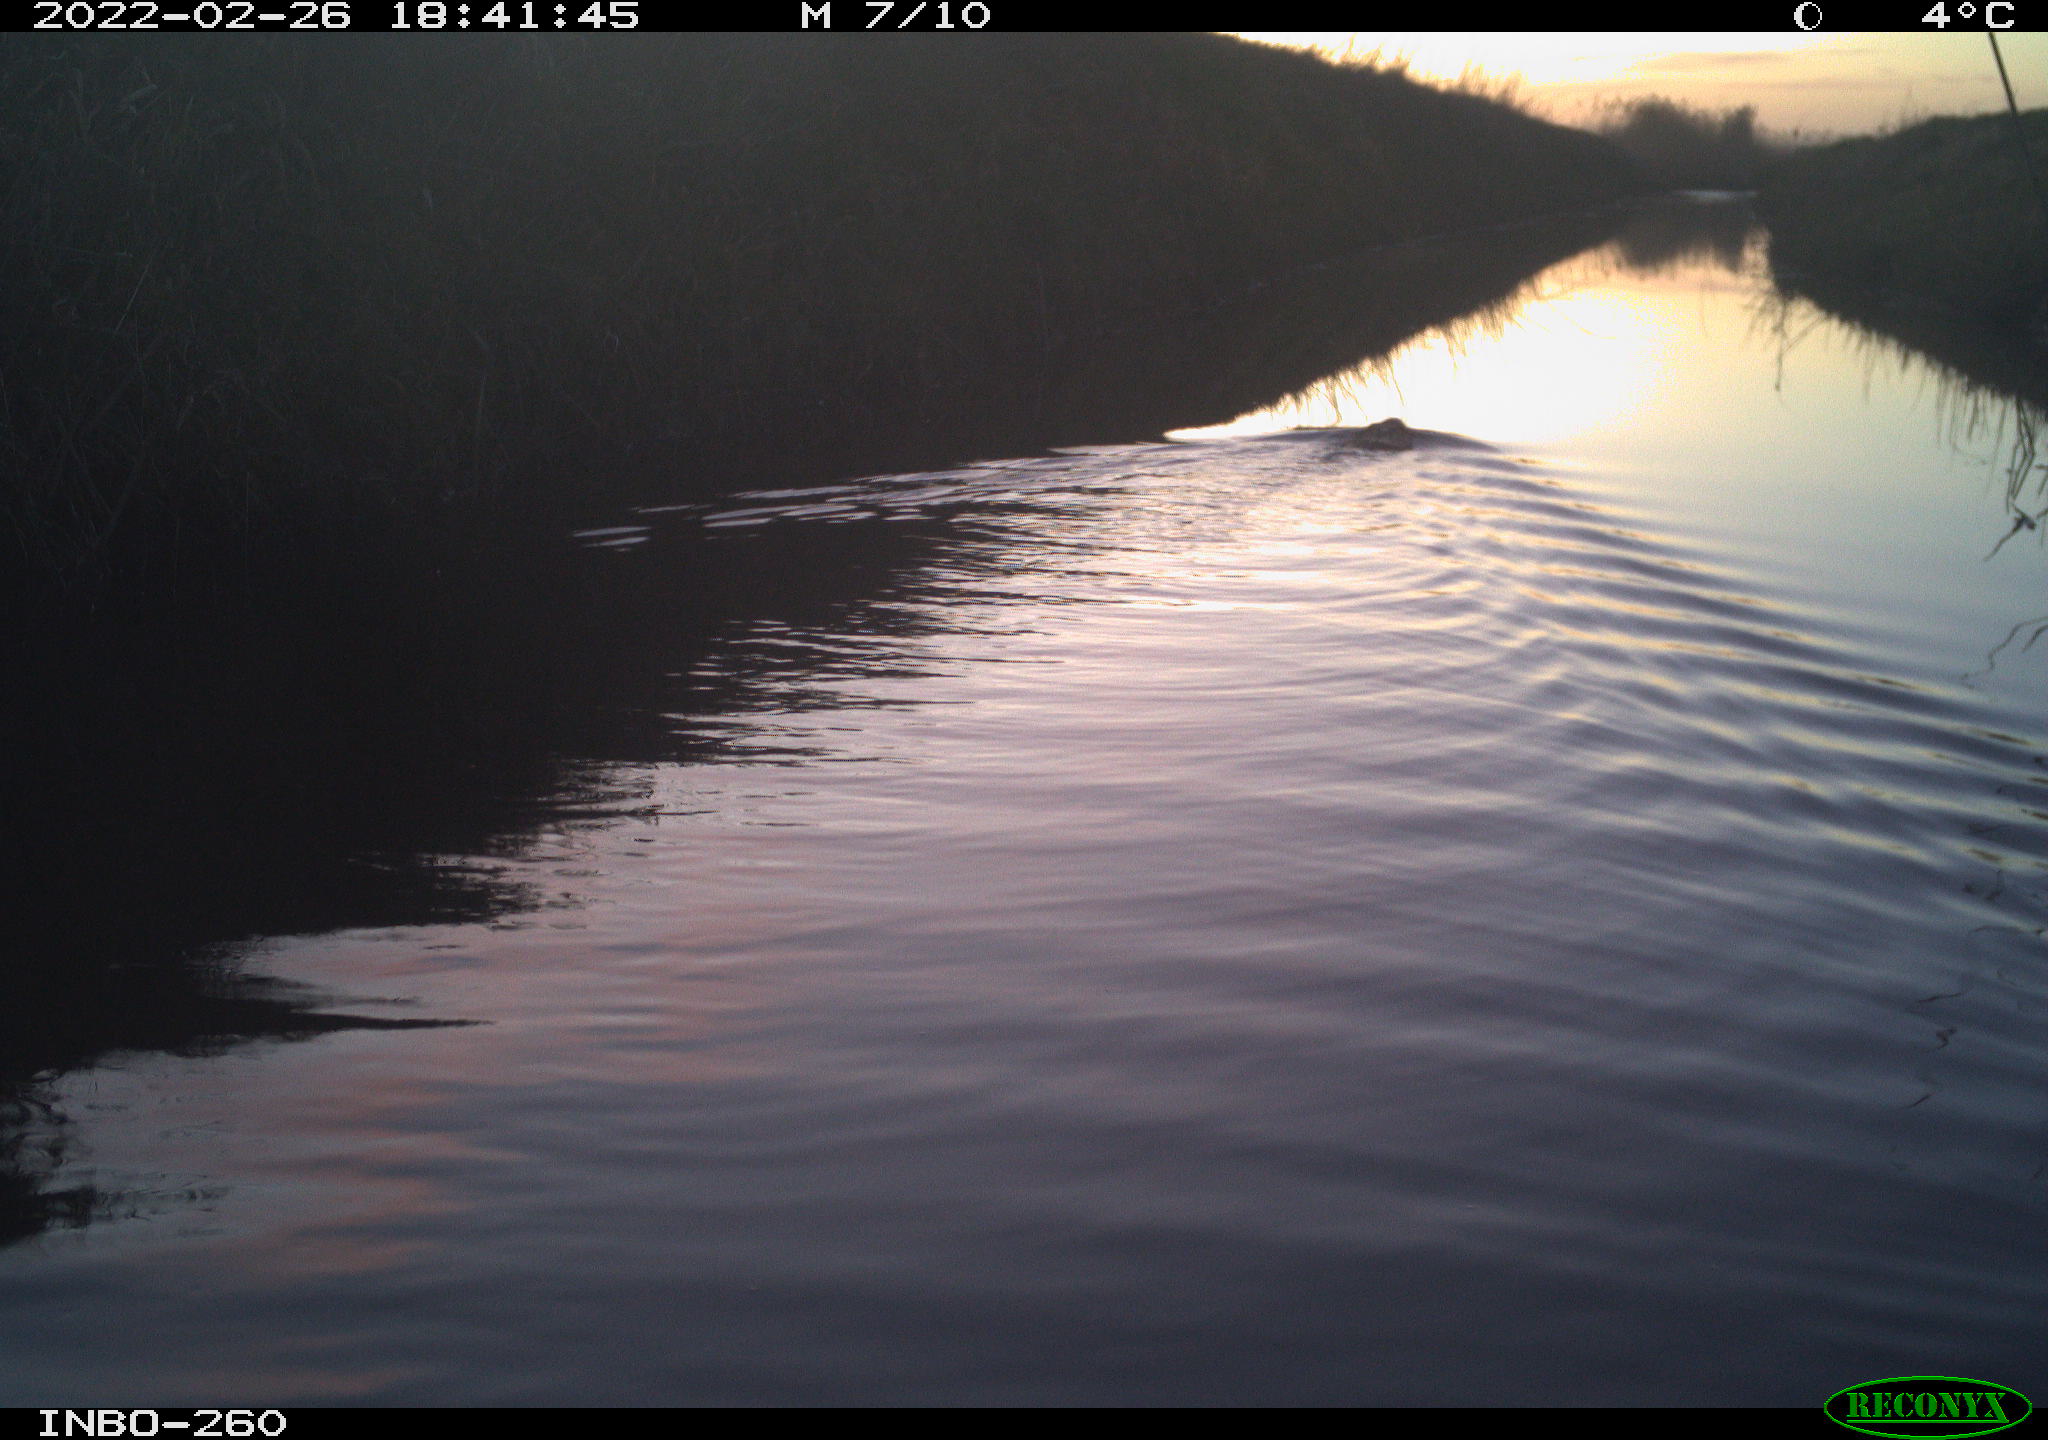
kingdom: Animalia
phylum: Chordata
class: Mammalia
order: Rodentia
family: Cricetidae
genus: Ondatra
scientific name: Ondatra zibethicus
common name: Muskrat
